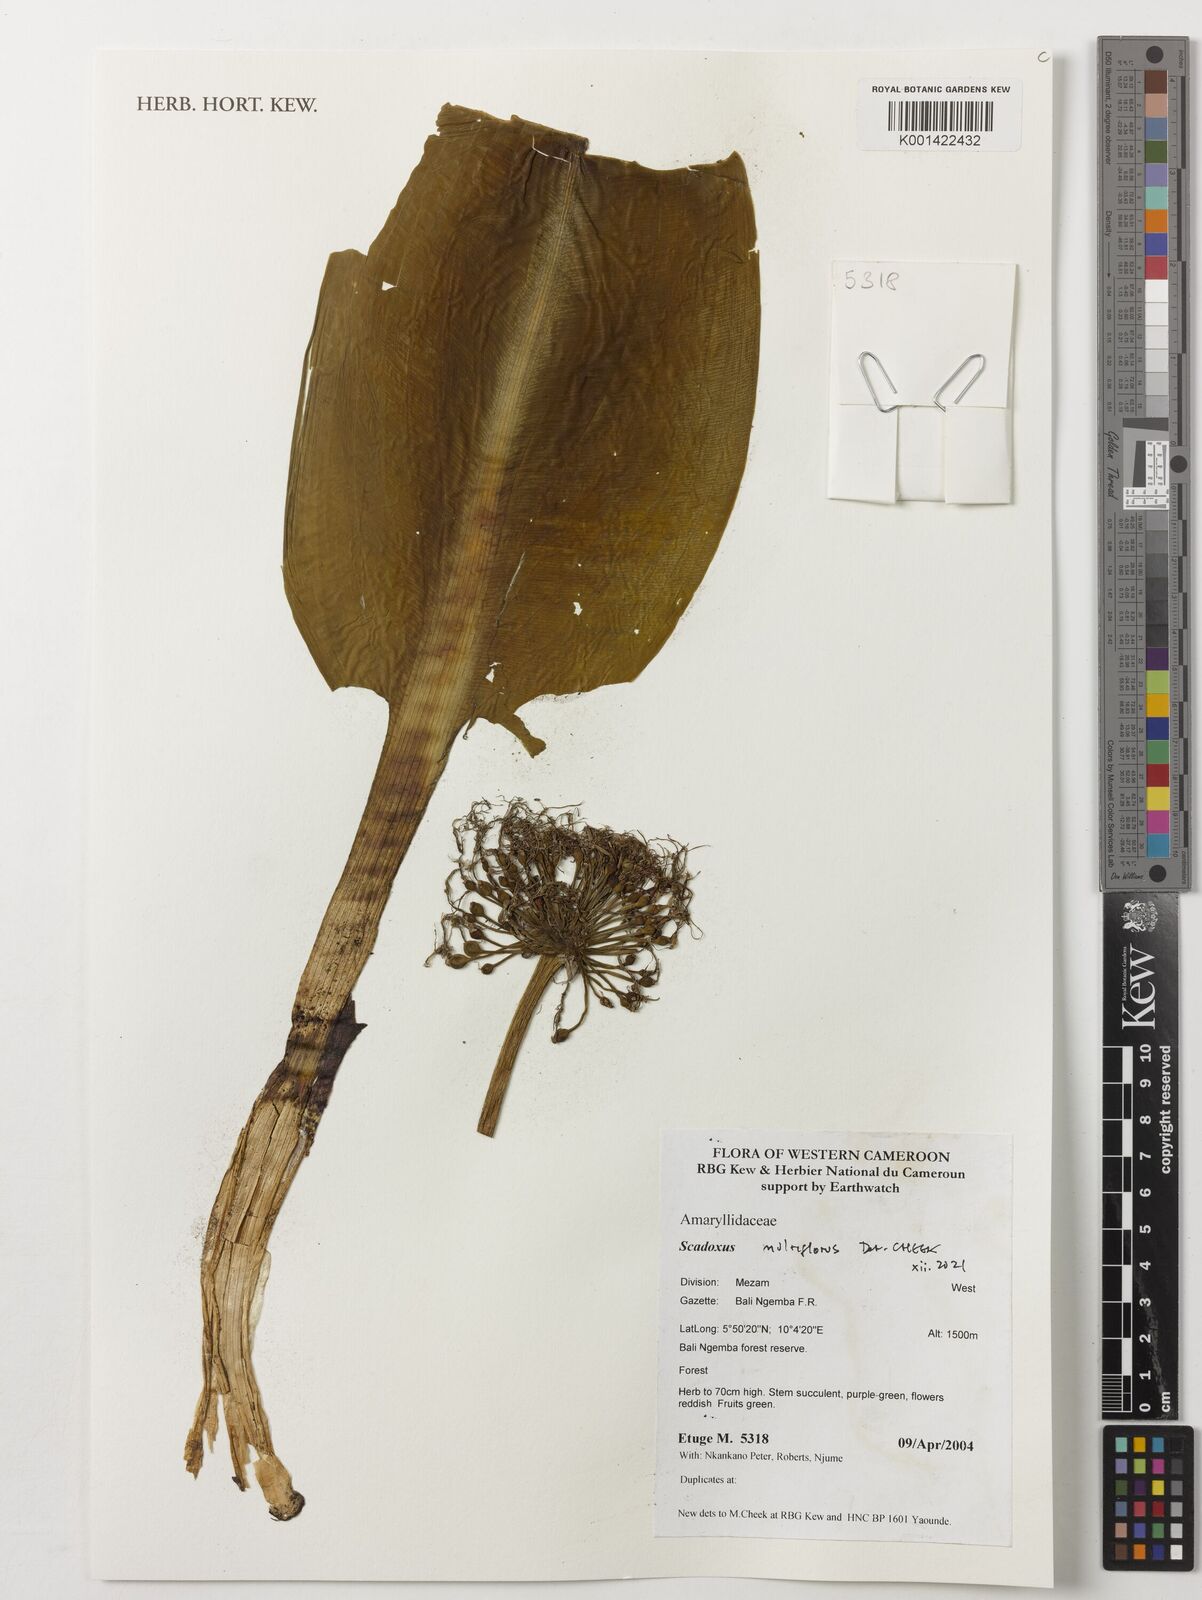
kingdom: Plantae
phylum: Tracheophyta
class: Liliopsida
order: Asparagales
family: Amaryllidaceae
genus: Scadoxus
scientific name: Scadoxus multiflorus
